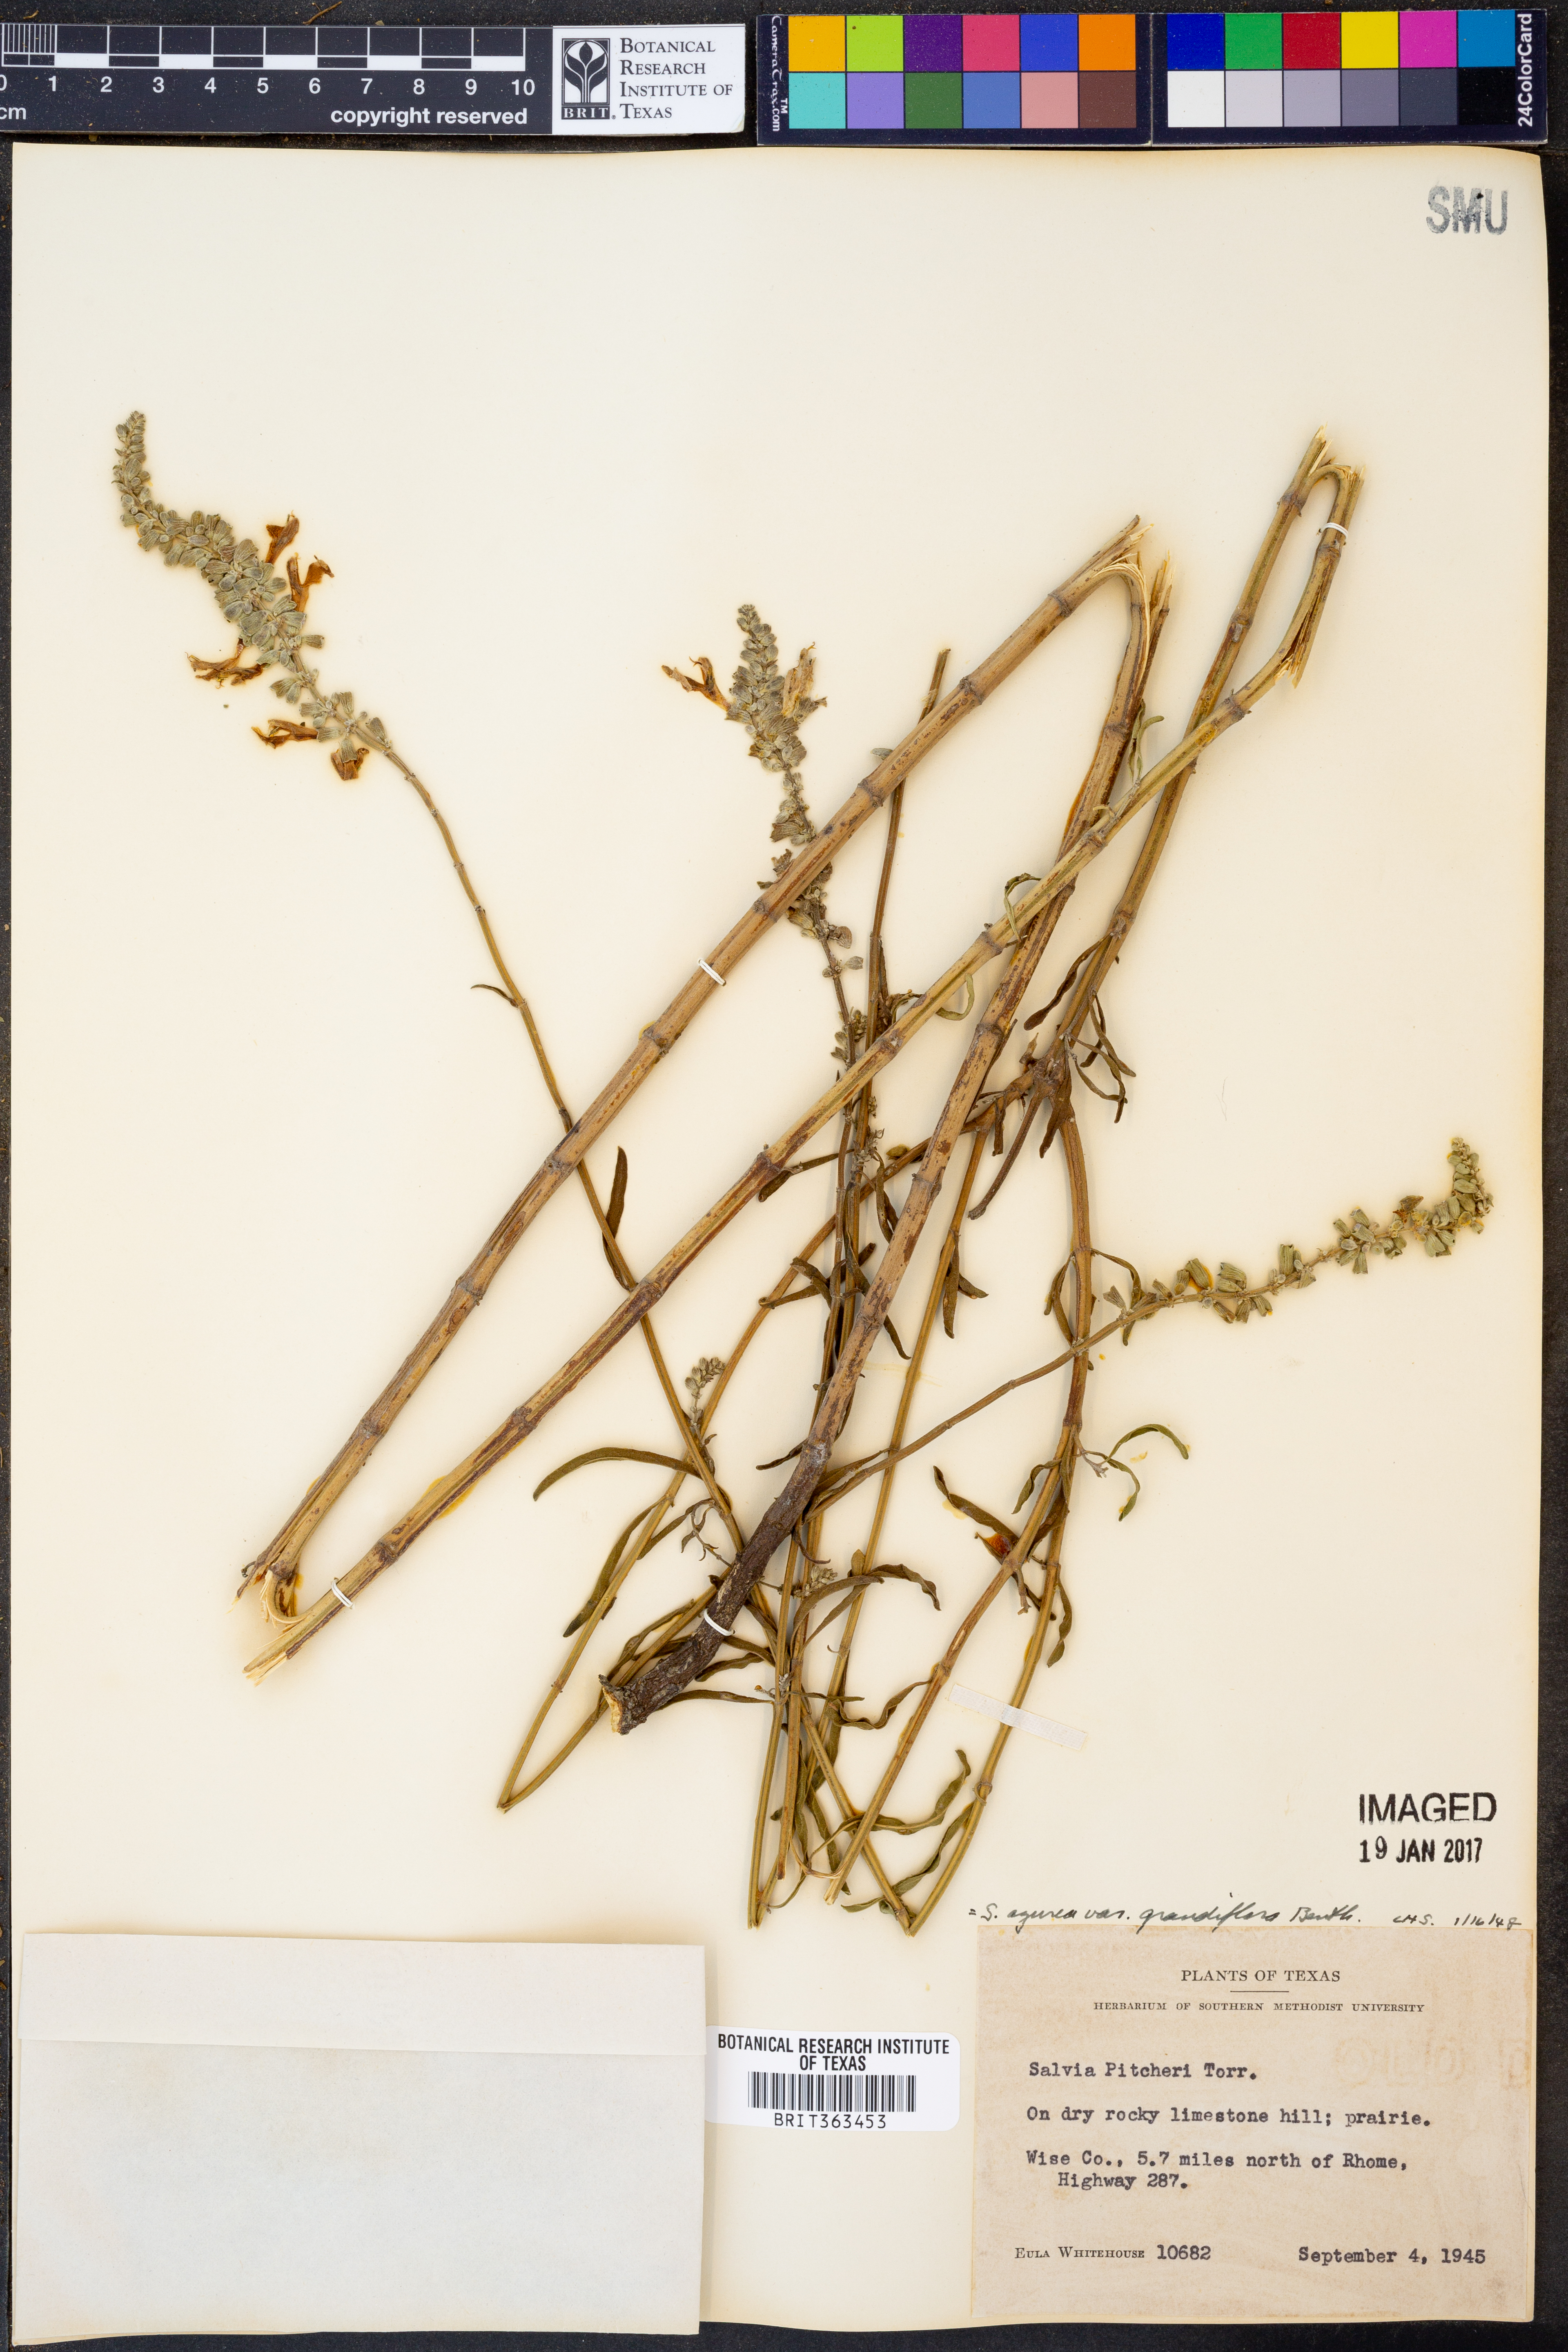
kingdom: Plantae
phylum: Tracheophyta
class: Magnoliopsida
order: Lamiales
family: Lamiaceae
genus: Salvia
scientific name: Salvia azurea
